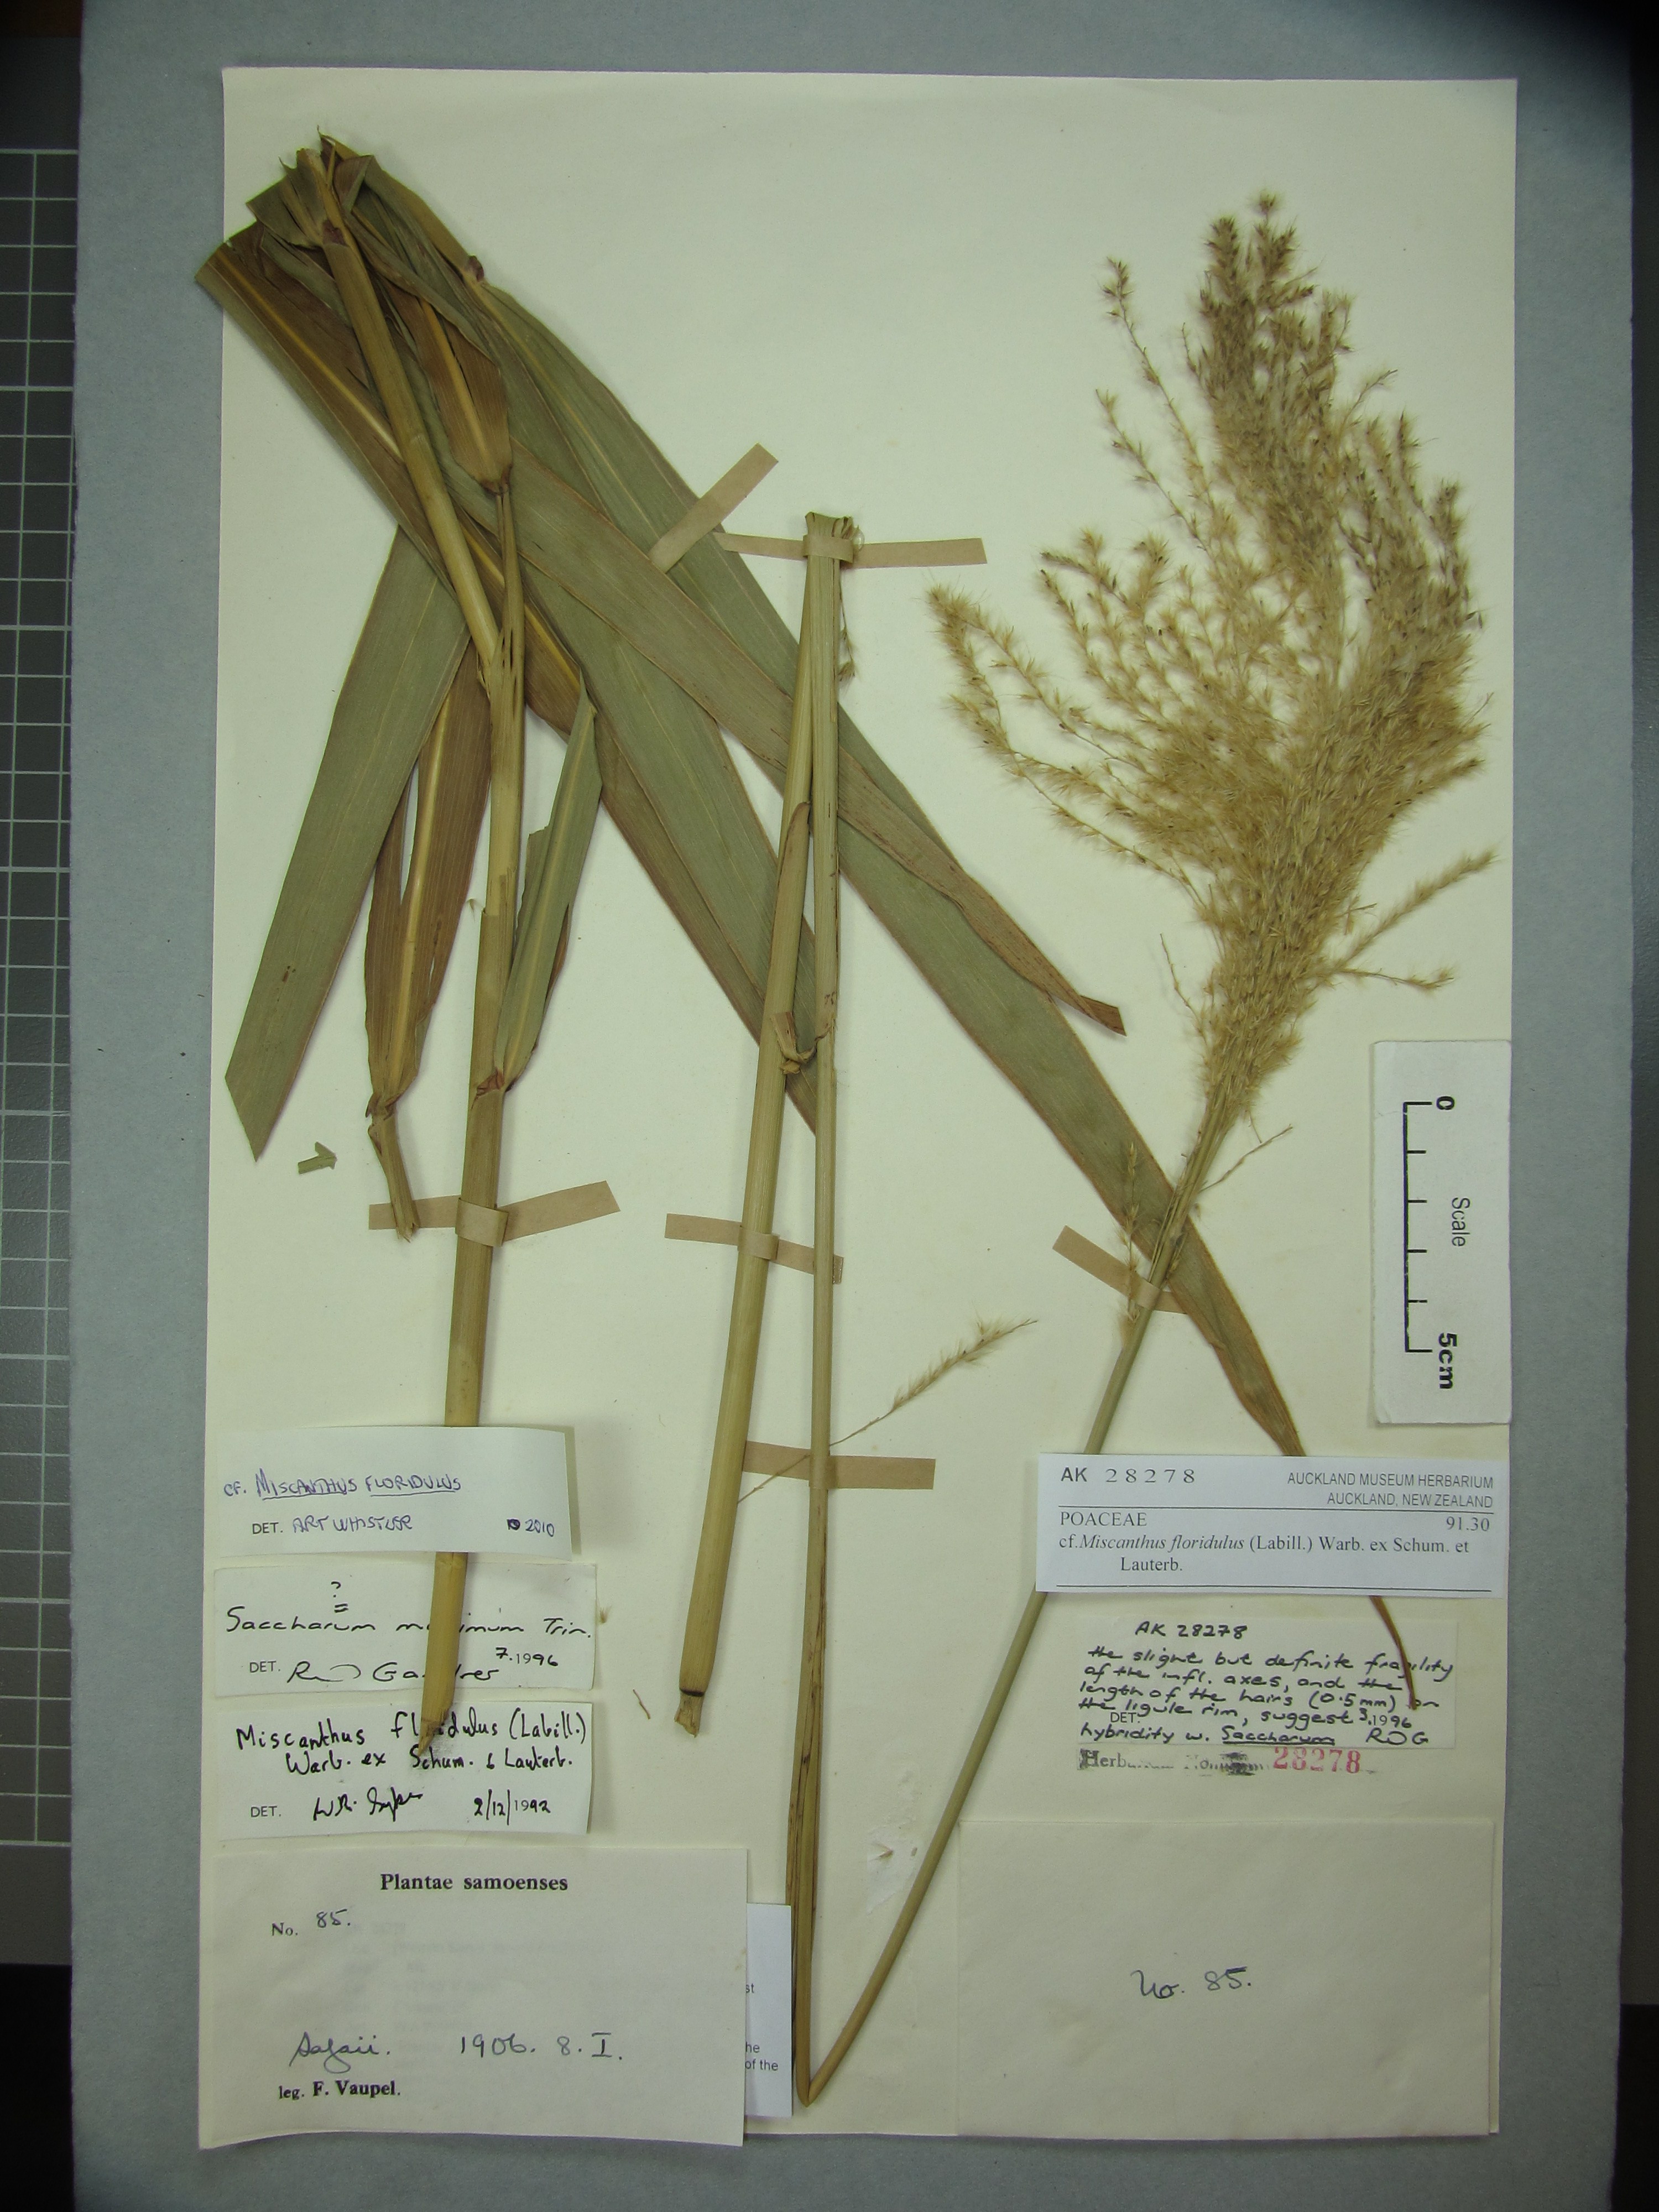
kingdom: Plantae
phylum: Tracheophyta
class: Liliopsida
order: Poales
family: Poaceae
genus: Miscanthus
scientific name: Miscanthus
